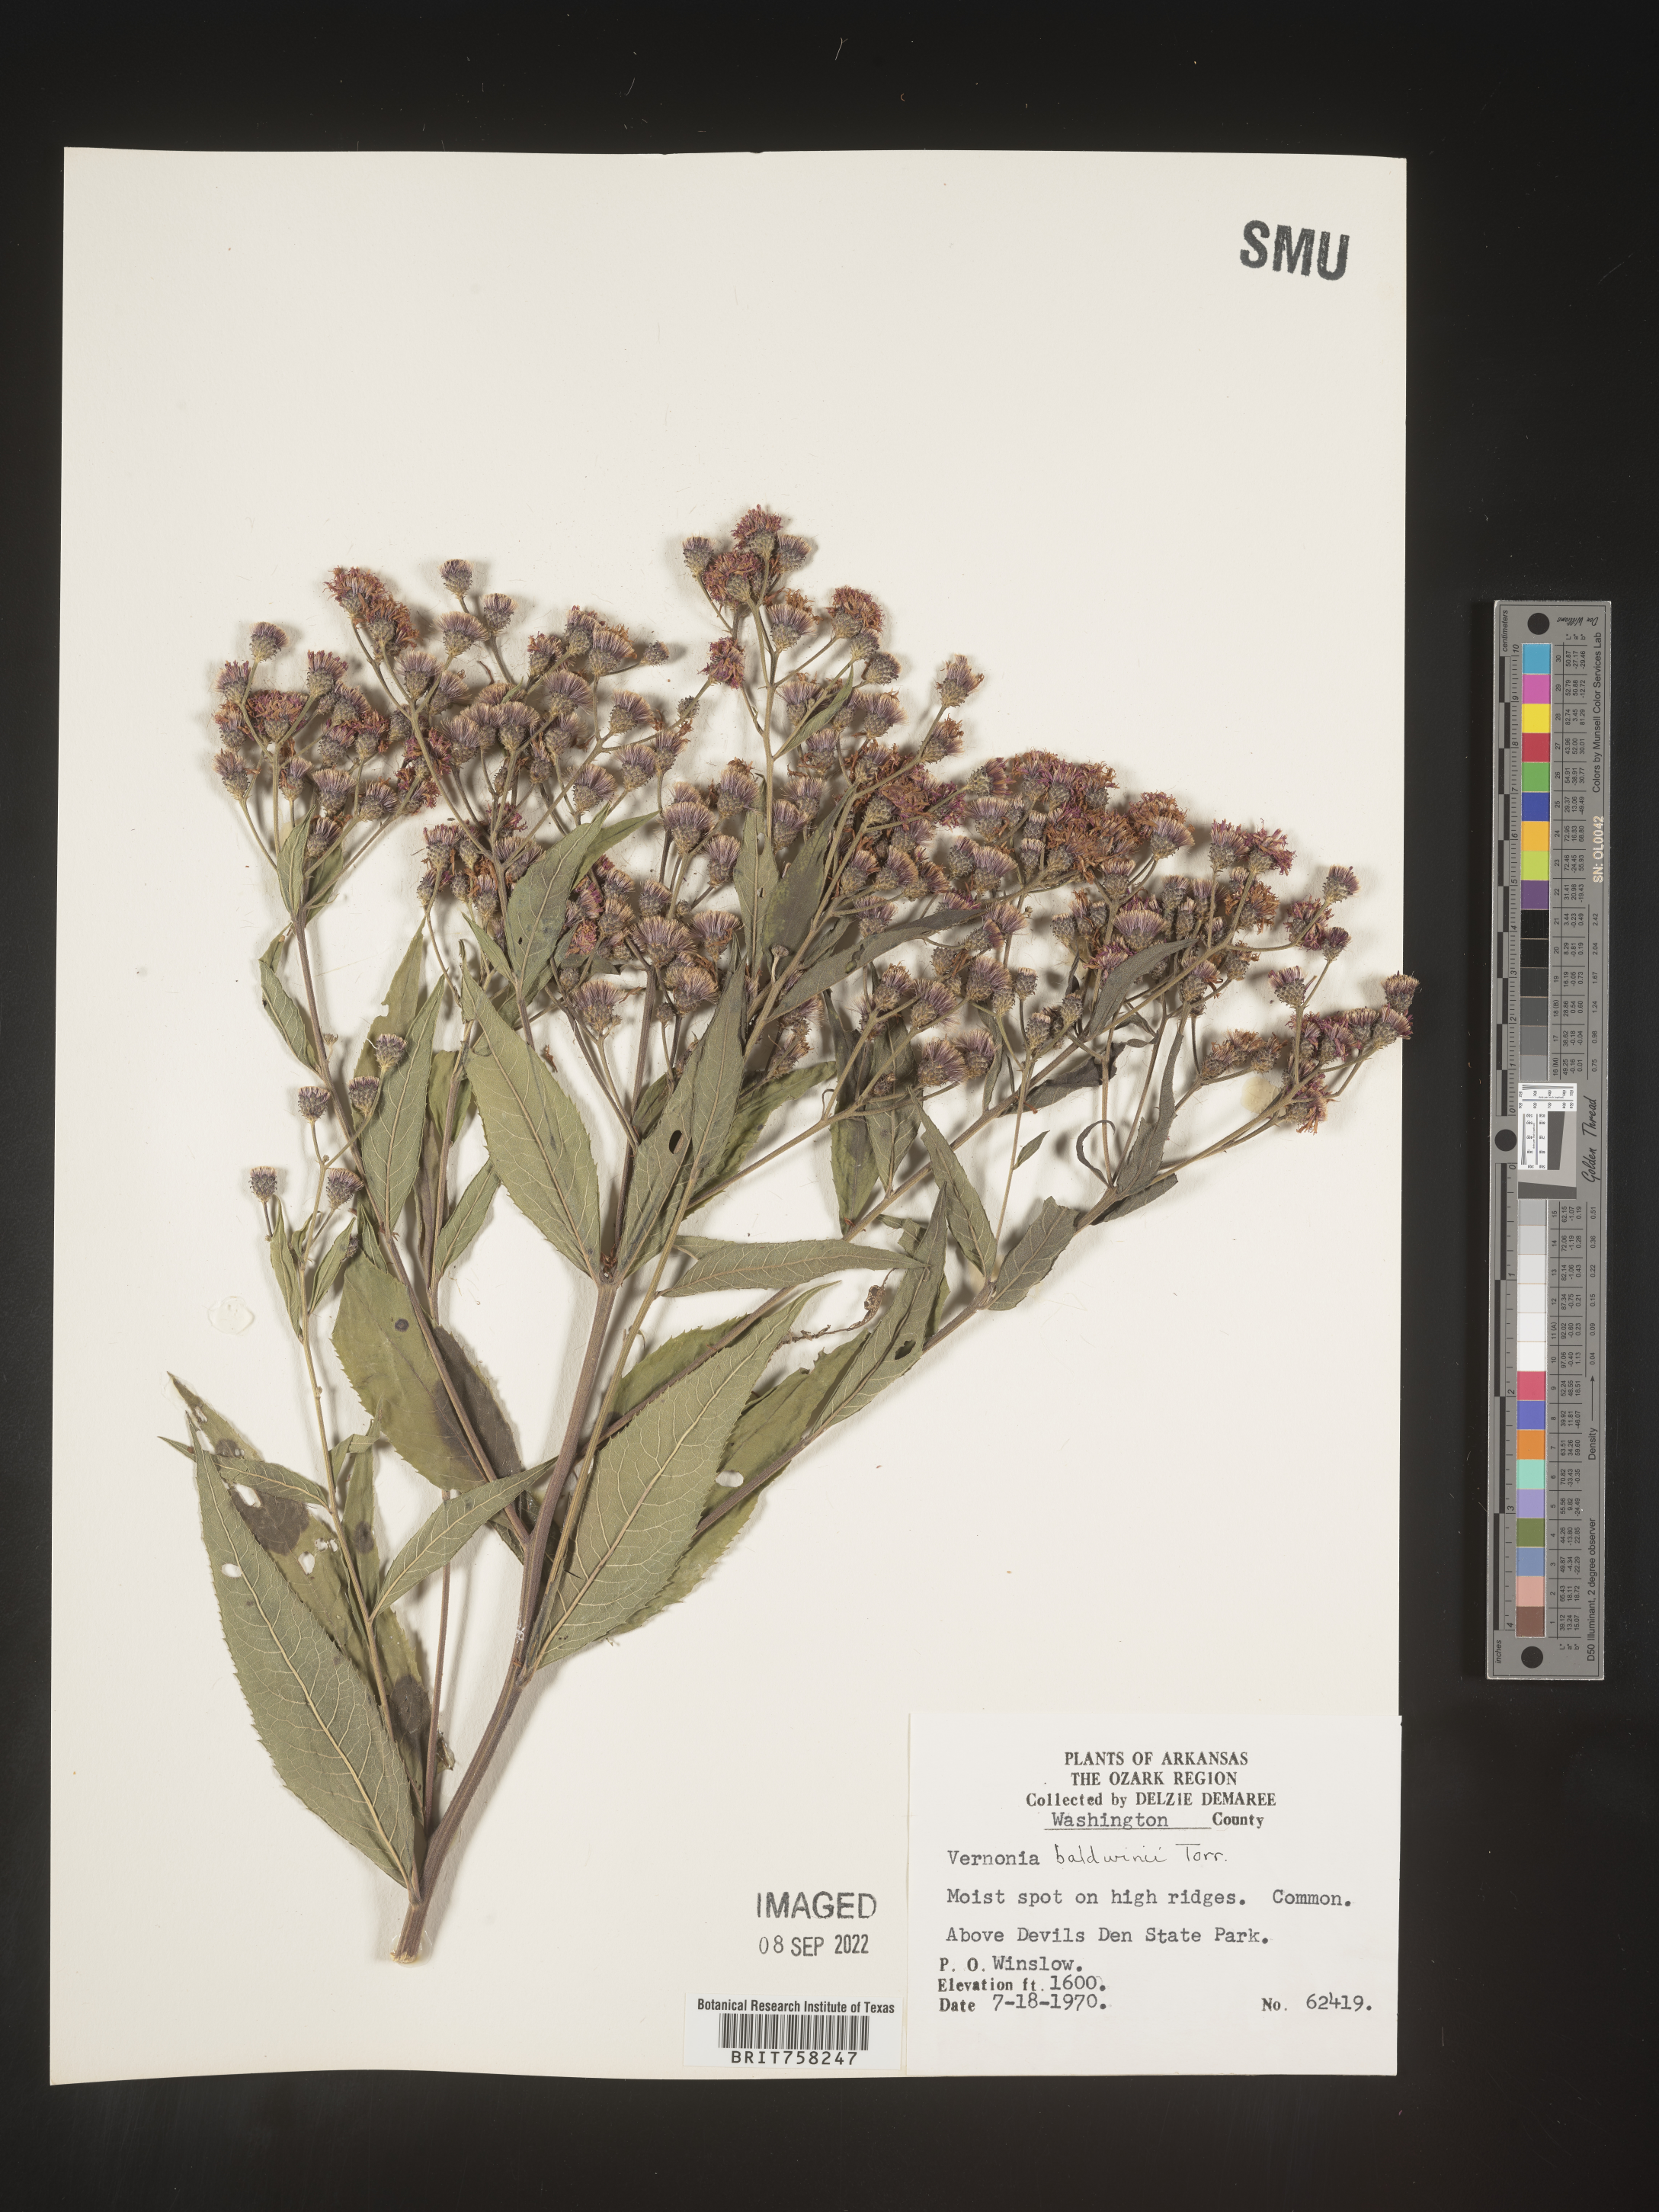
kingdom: Plantae
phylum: Tracheophyta
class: Magnoliopsida
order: Asterales
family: Asteraceae
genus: Vernonia
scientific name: Vernonia baldwinii
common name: Western ironweed
